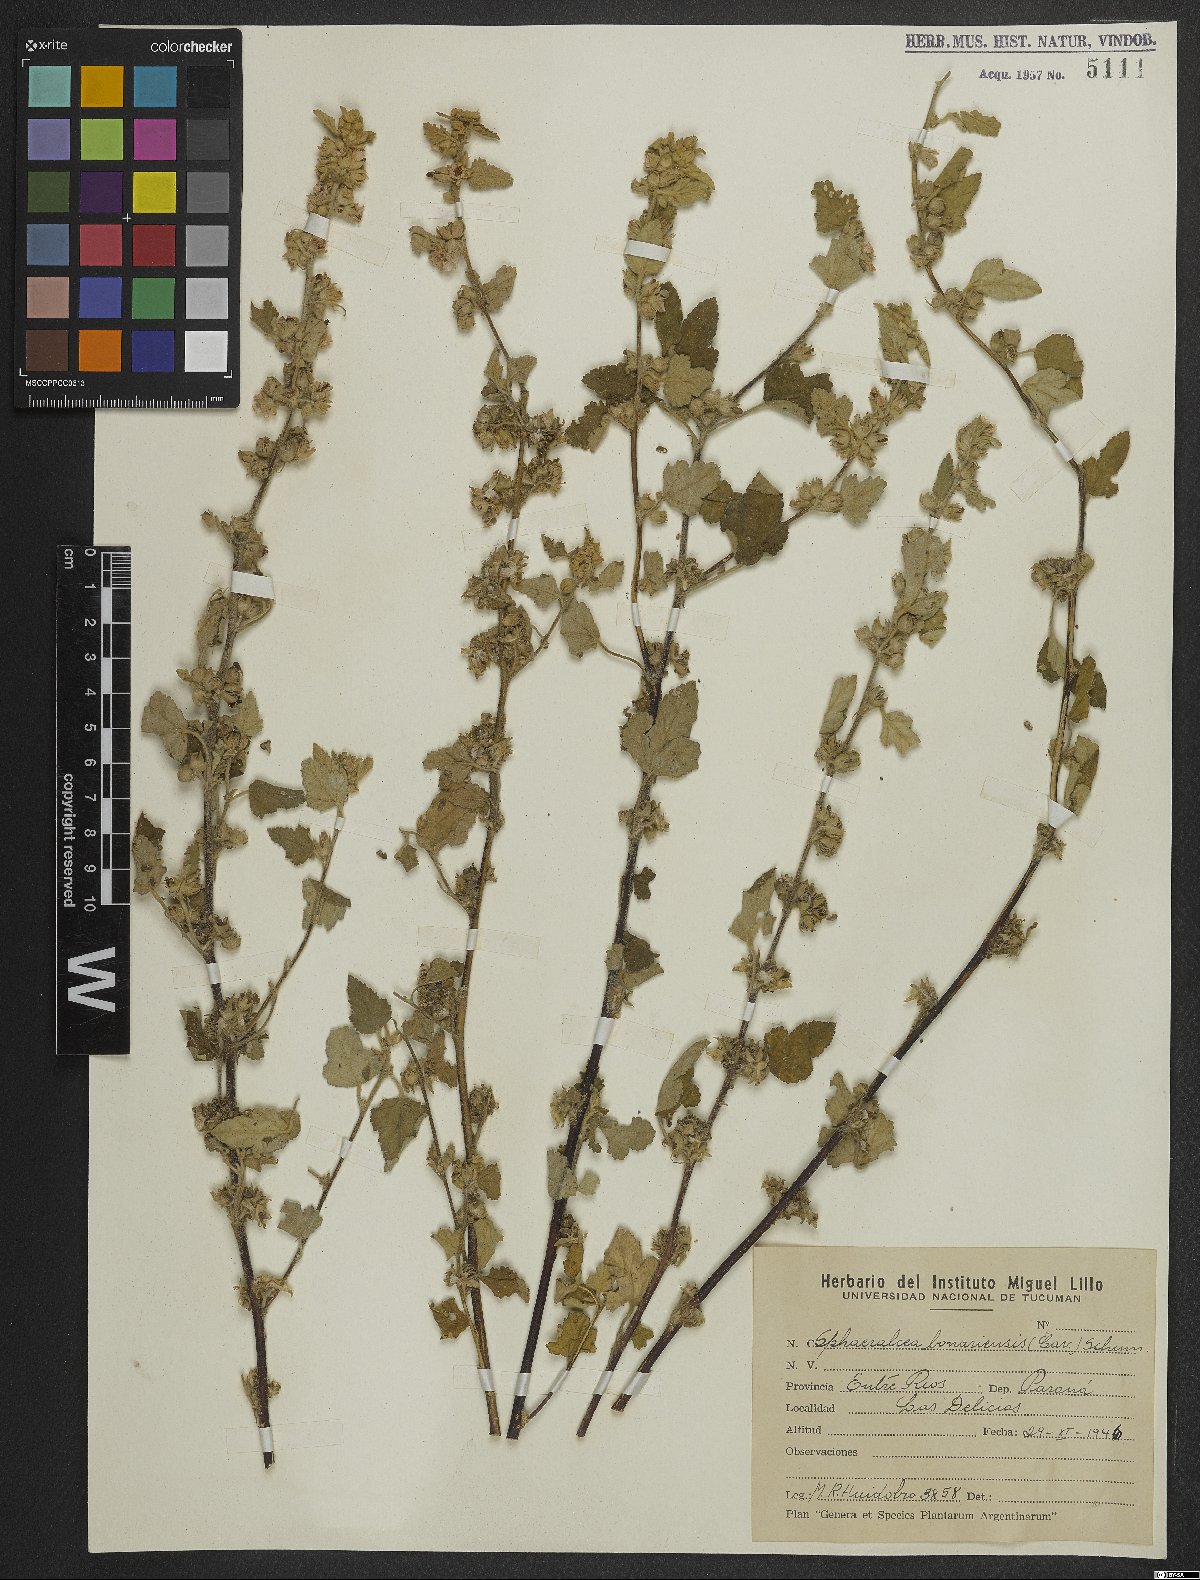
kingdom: Plantae
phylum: Tracheophyta
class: Magnoliopsida
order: Malvales
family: Malvaceae
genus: Sphaeralcea
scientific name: Sphaeralcea bonariensis
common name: Latin globemallow
